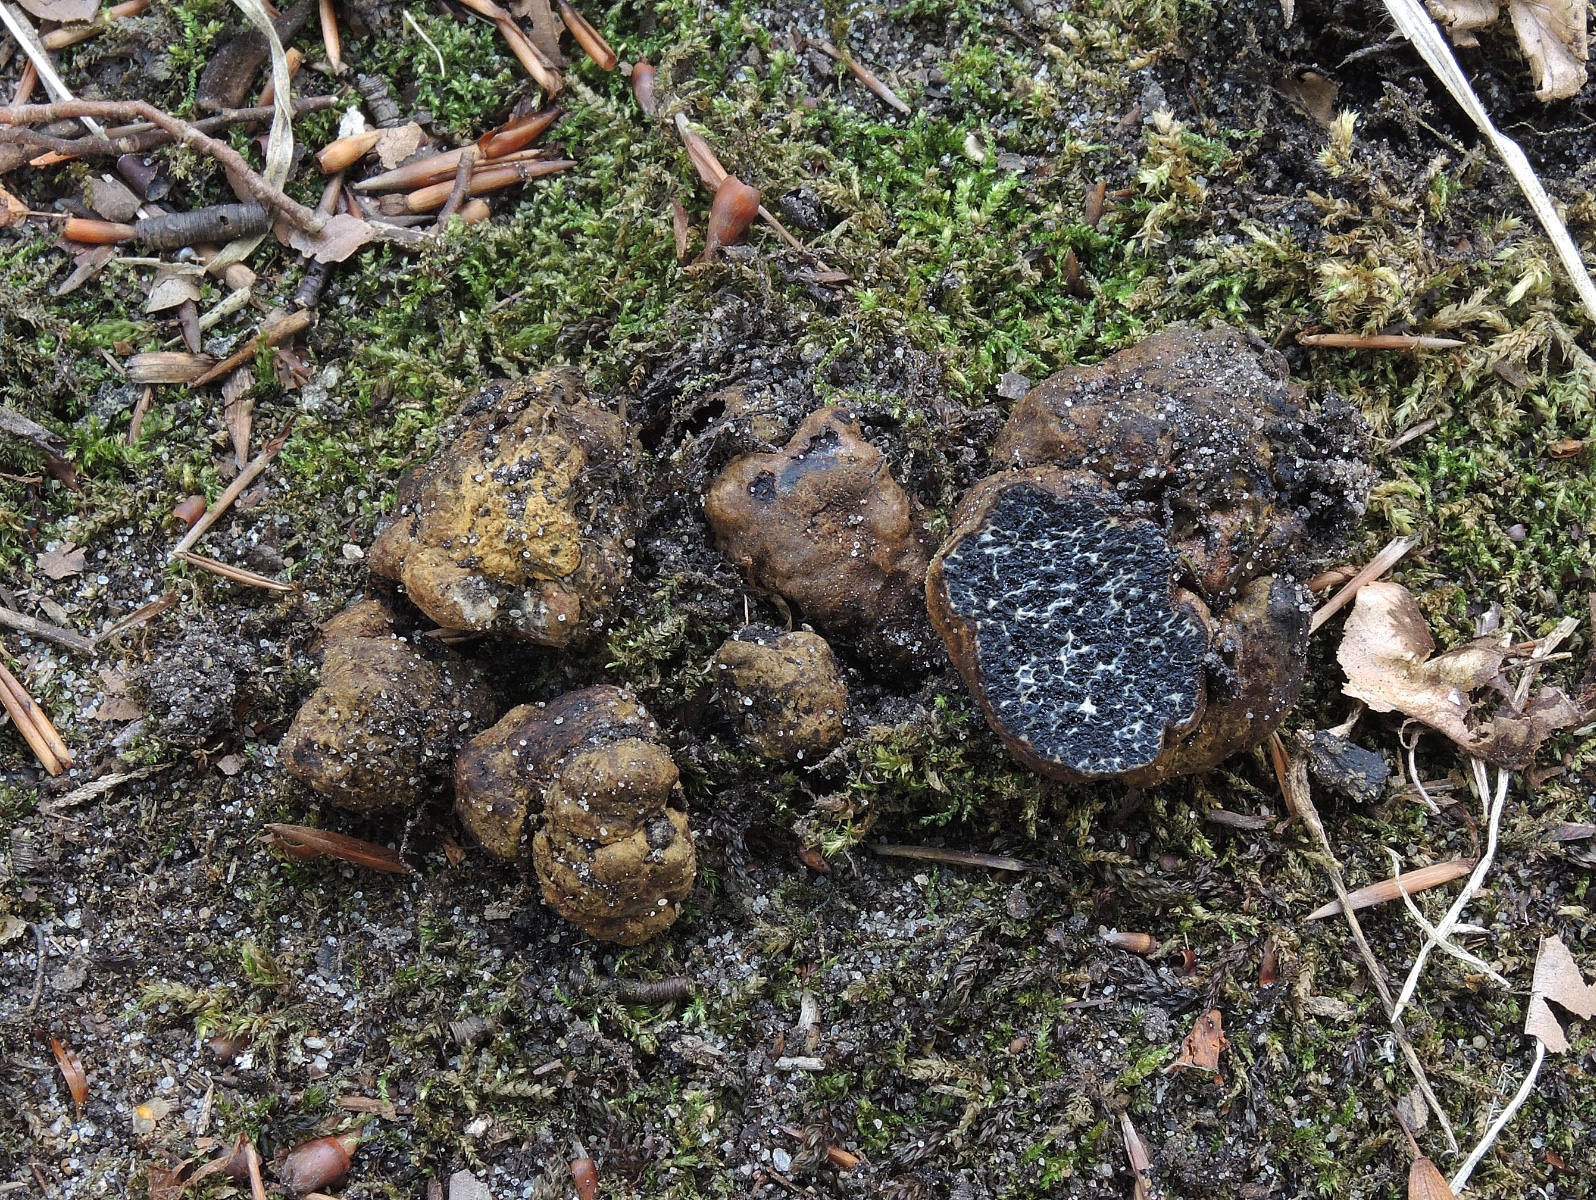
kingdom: Fungi
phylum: Basidiomycota
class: Agaricomycetes
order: Boletales
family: Paxillaceae
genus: Melanogaster
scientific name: Melanogaster broomeanus
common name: broget slimtrøffel
